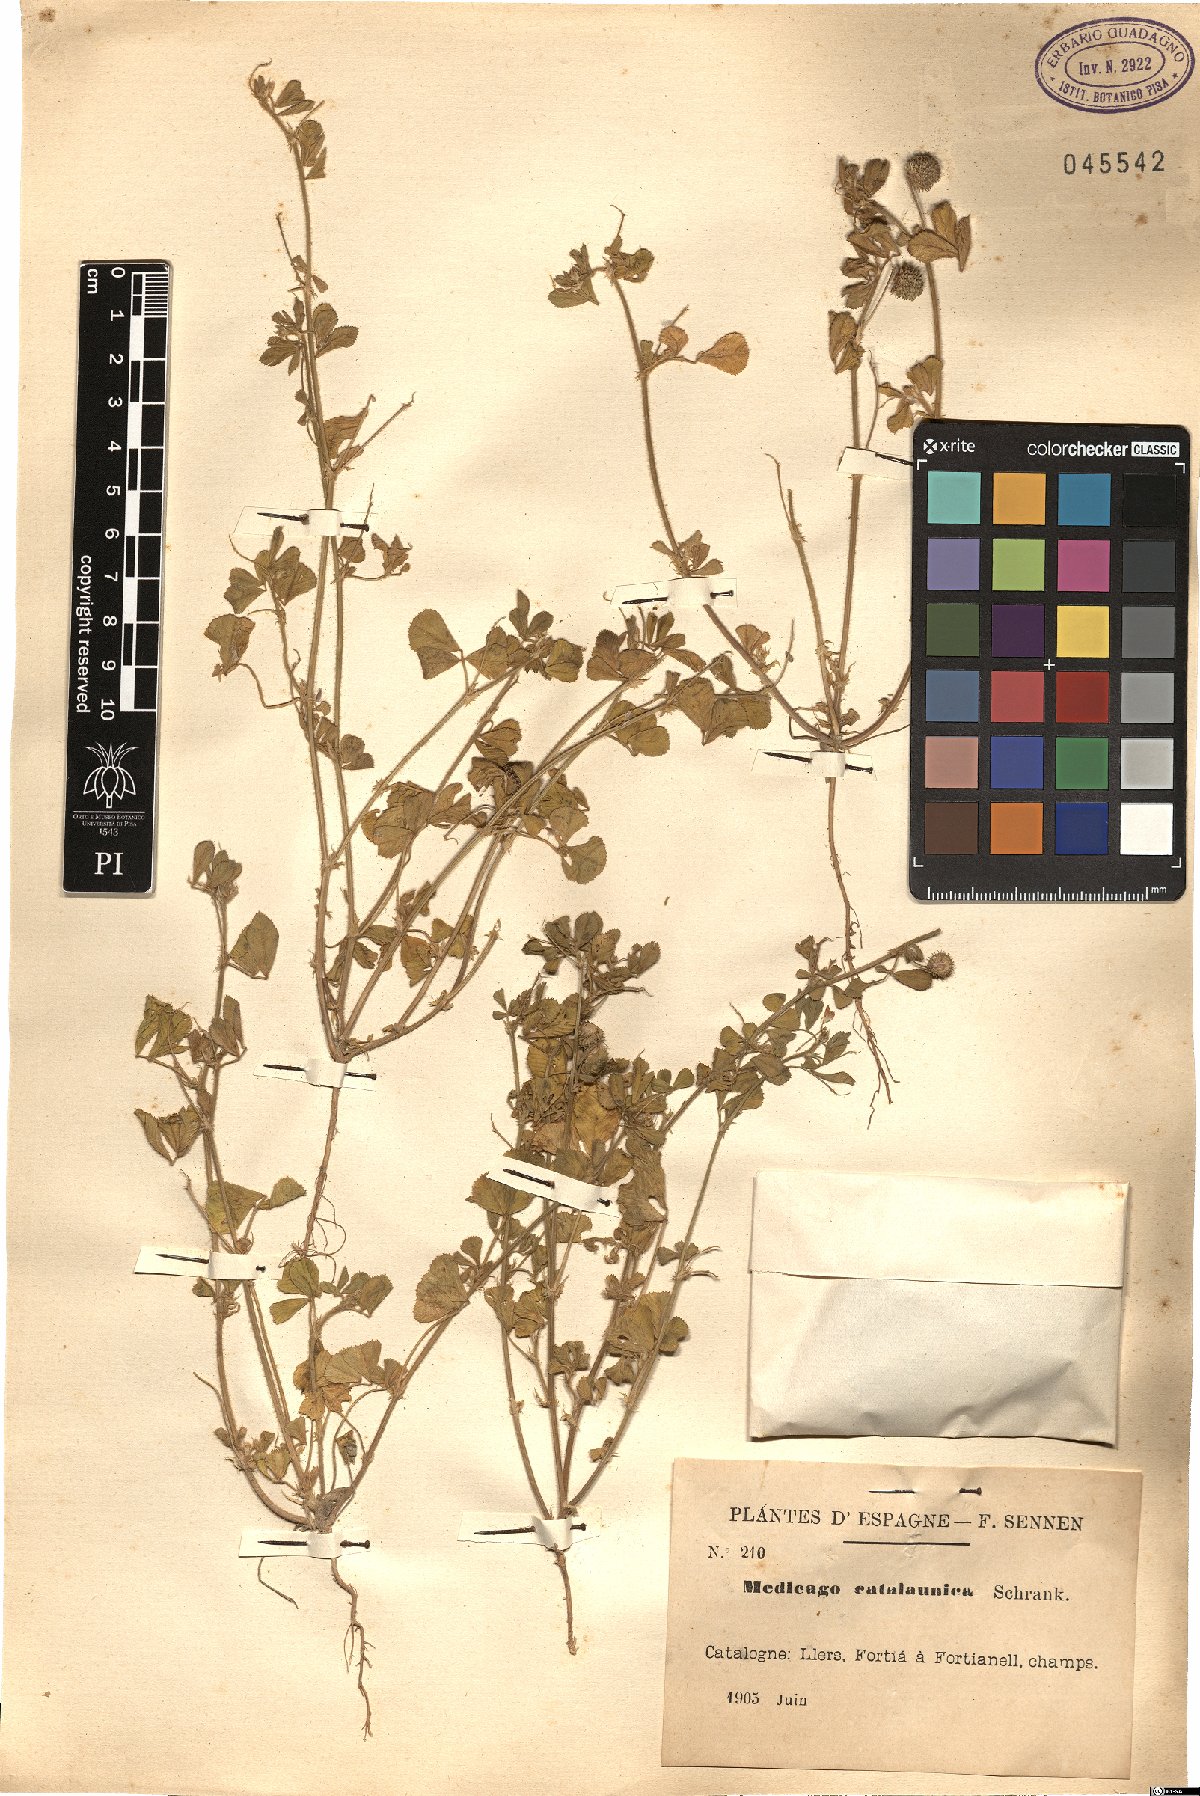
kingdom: Plantae
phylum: Tracheophyta
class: Magnoliopsida
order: Fabales
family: Fabaceae
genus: Medicago
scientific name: Medicago turbinata
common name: Southern medick
